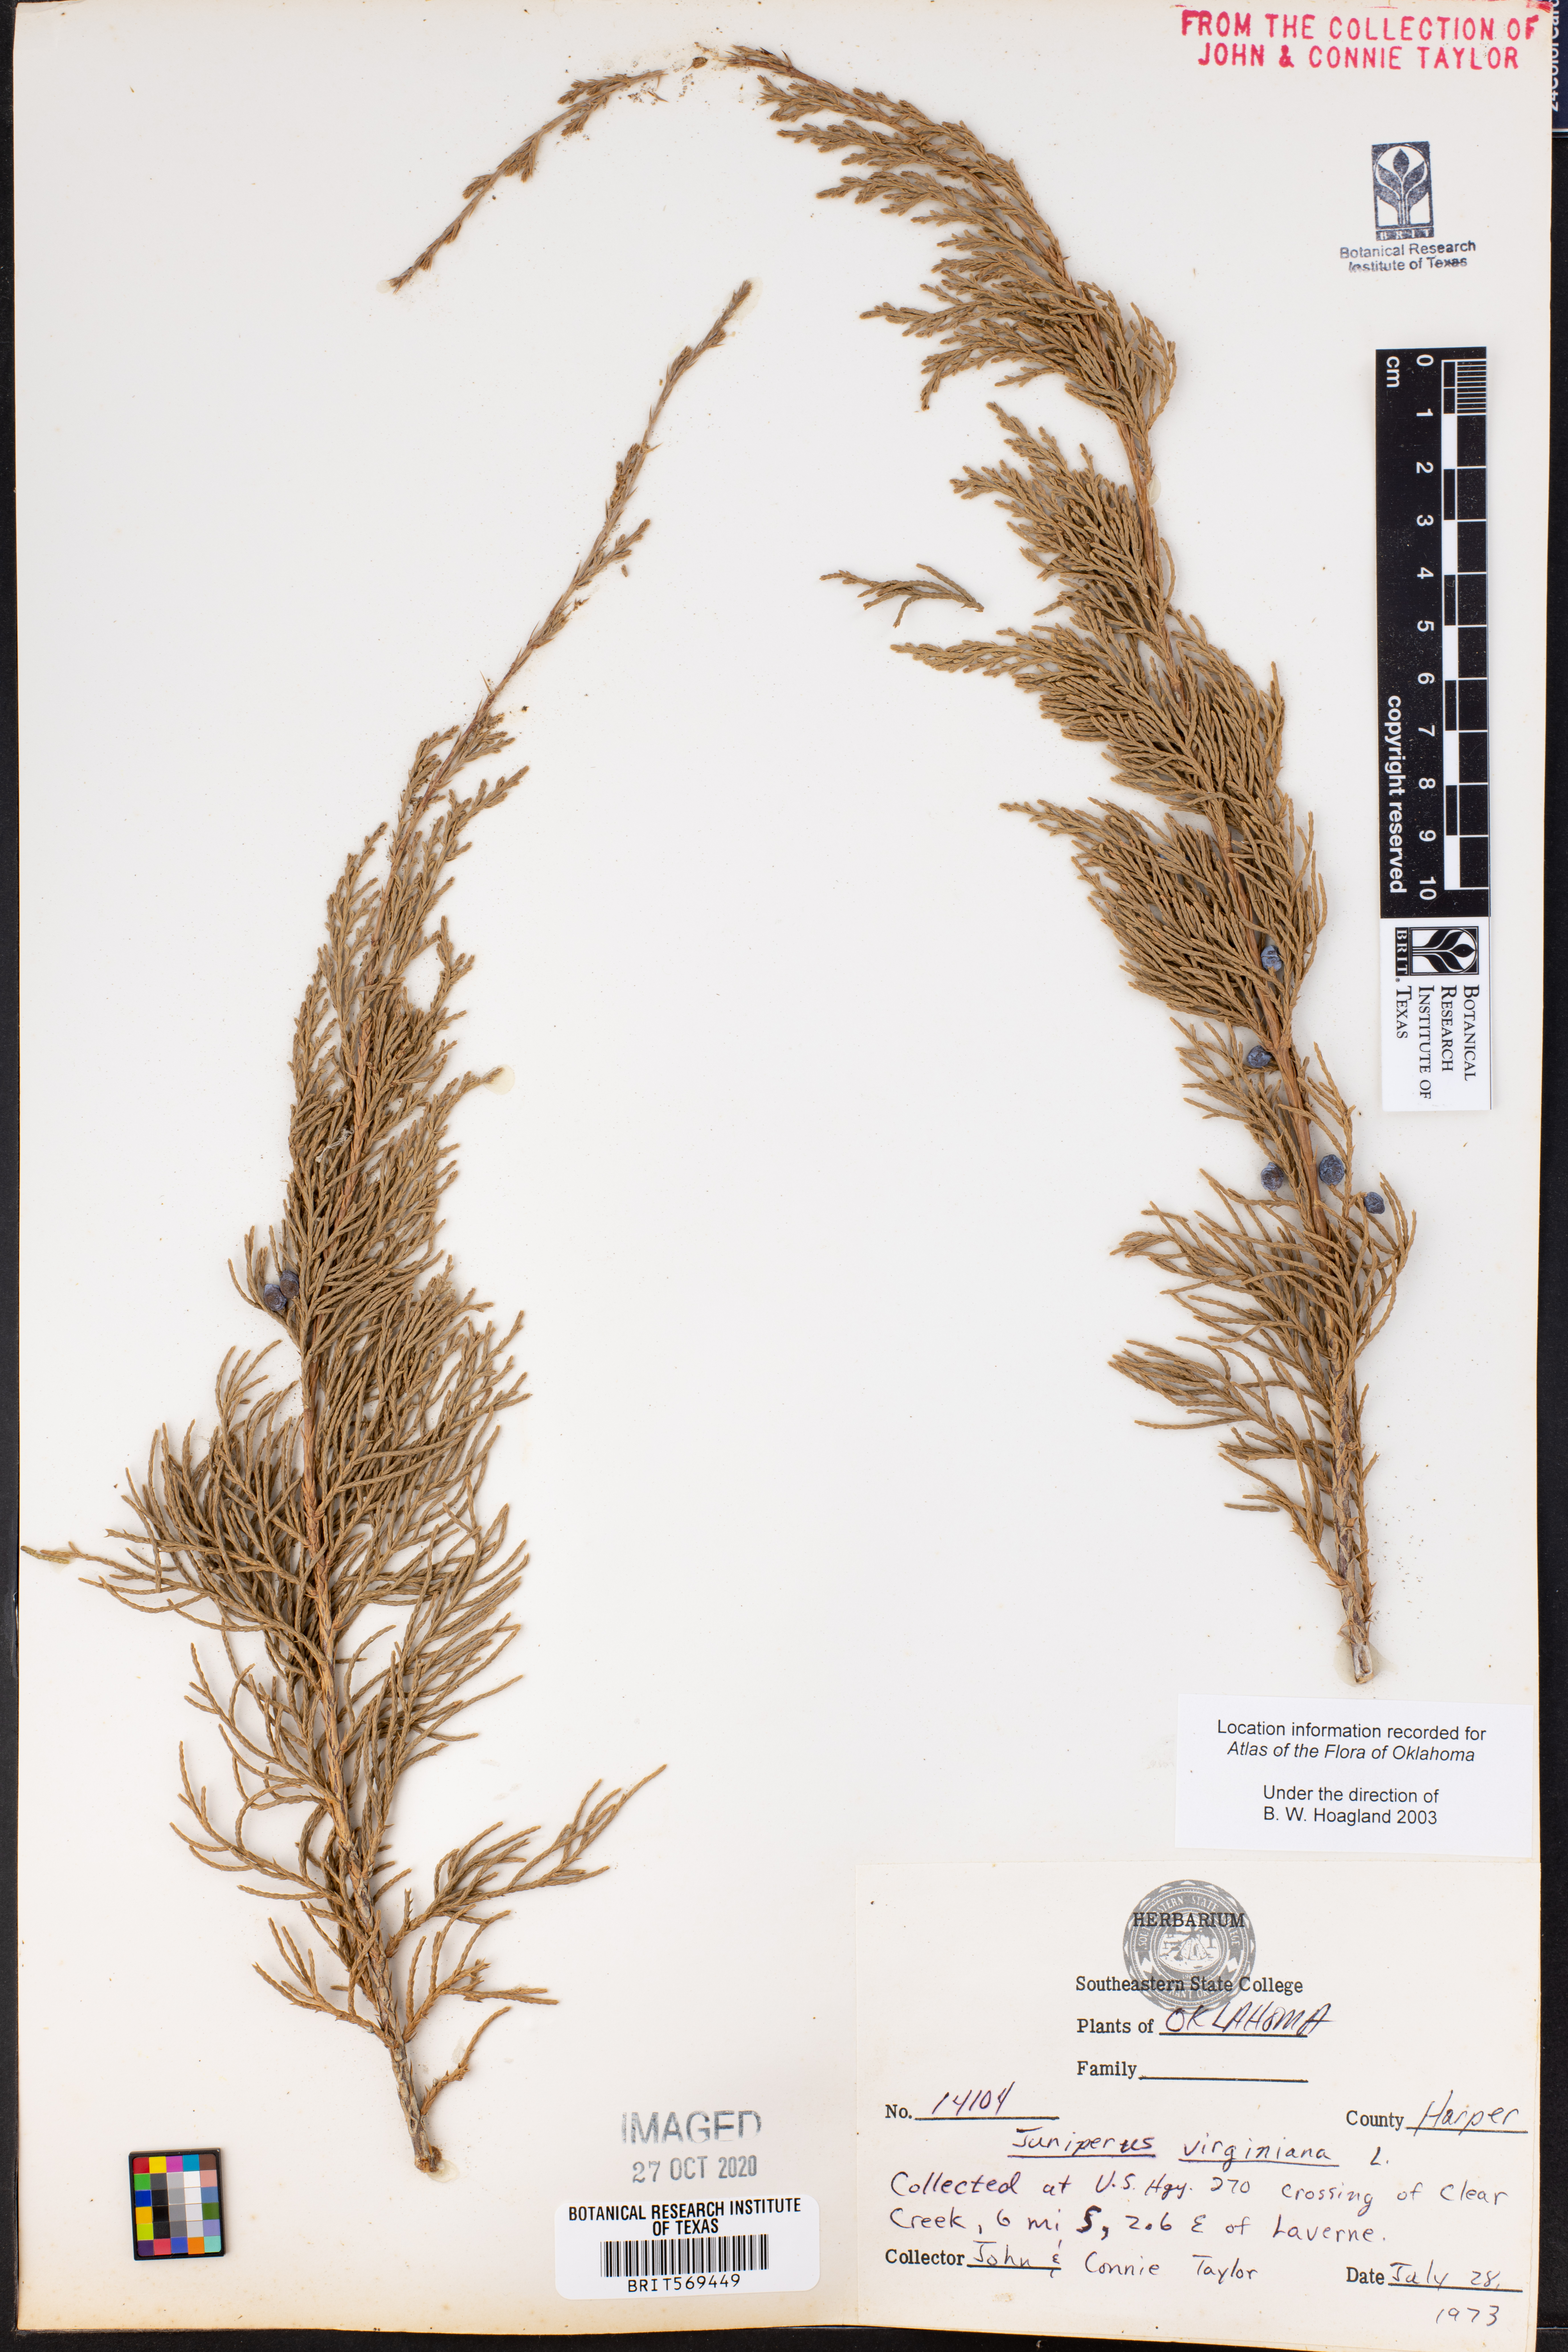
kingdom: Plantae
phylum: Tracheophyta
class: Pinopsida
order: Pinales
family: Cupressaceae
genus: Juniperus
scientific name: Juniperus virginiana
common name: Red juniper
